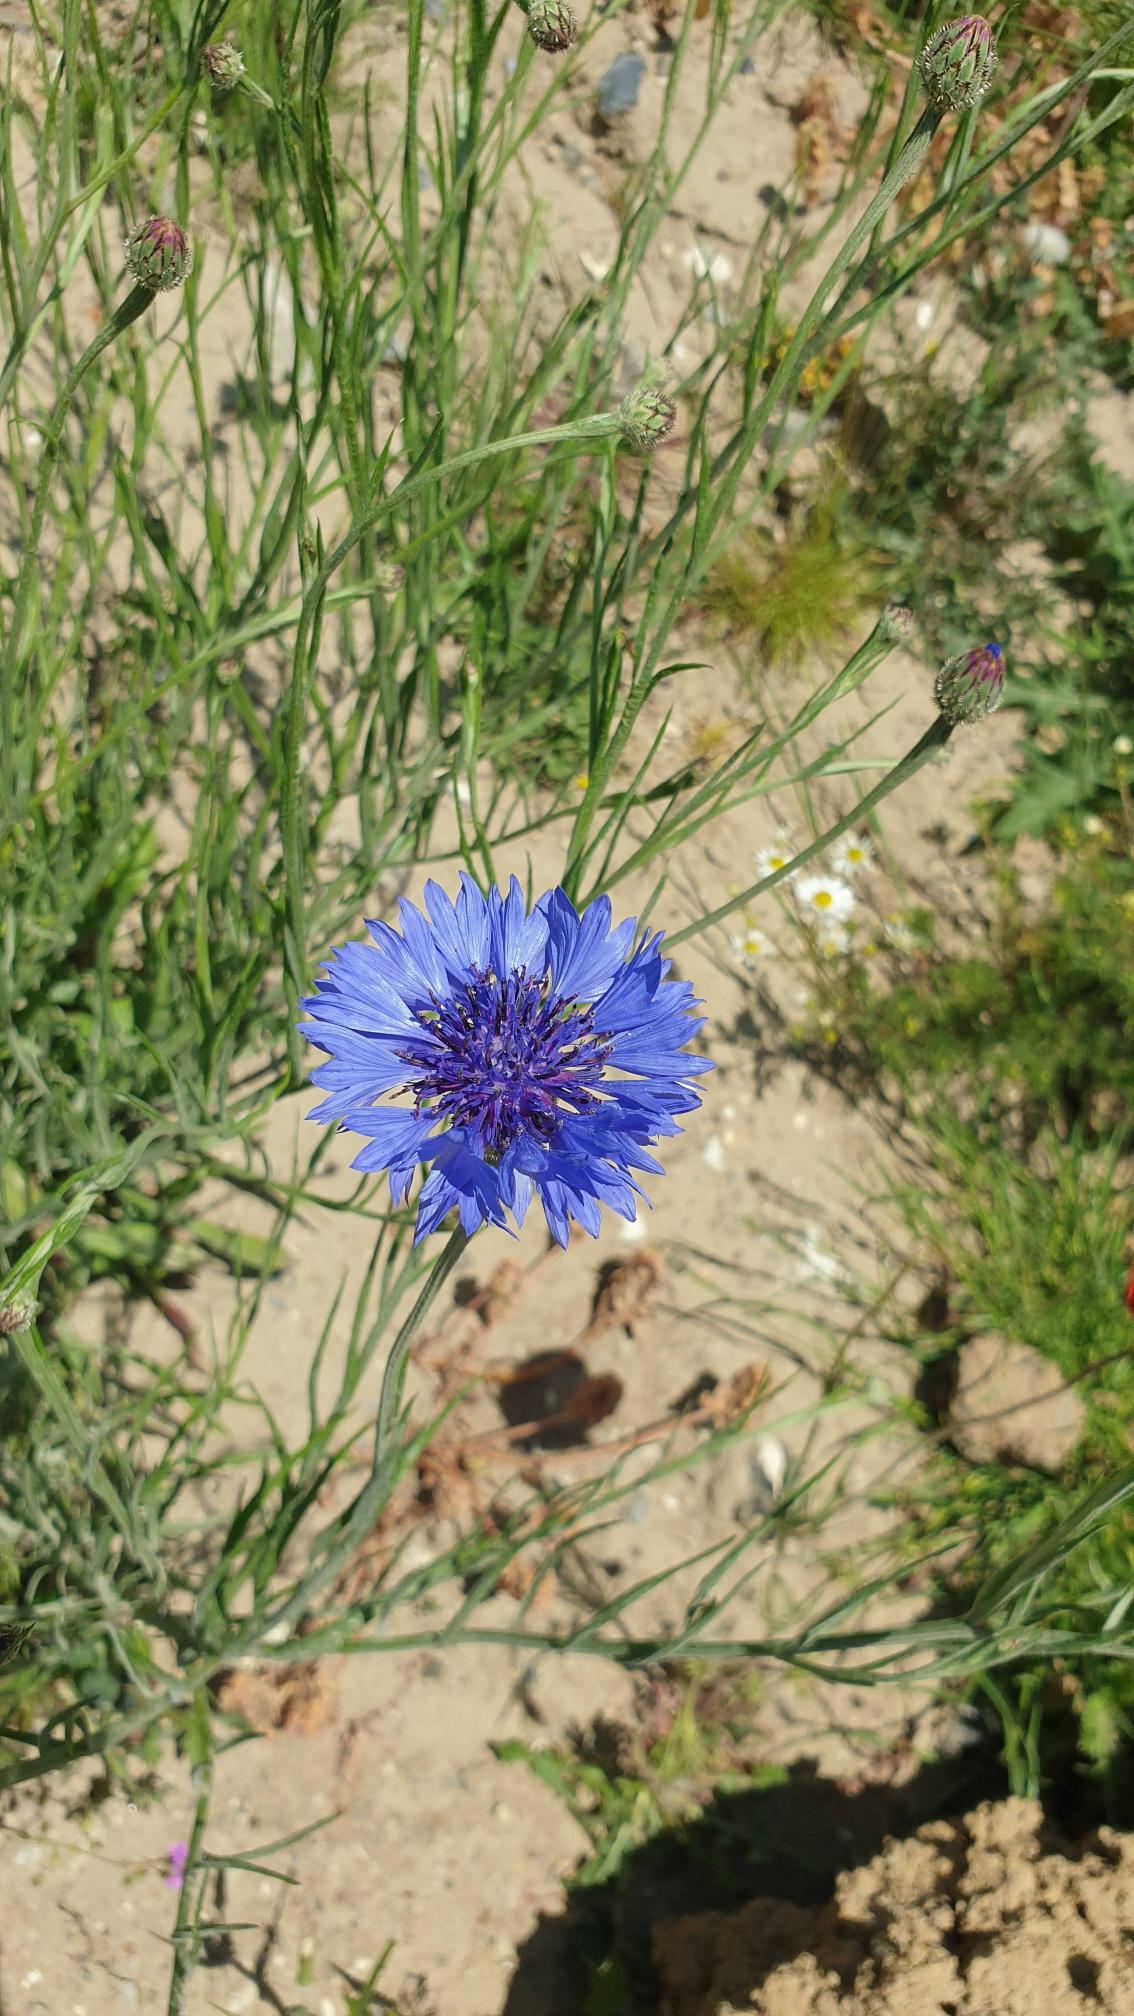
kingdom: Plantae
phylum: Tracheophyta
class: Magnoliopsida
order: Asterales
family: Asteraceae
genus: Centaurea
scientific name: Centaurea cyanus
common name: Kornblomst
